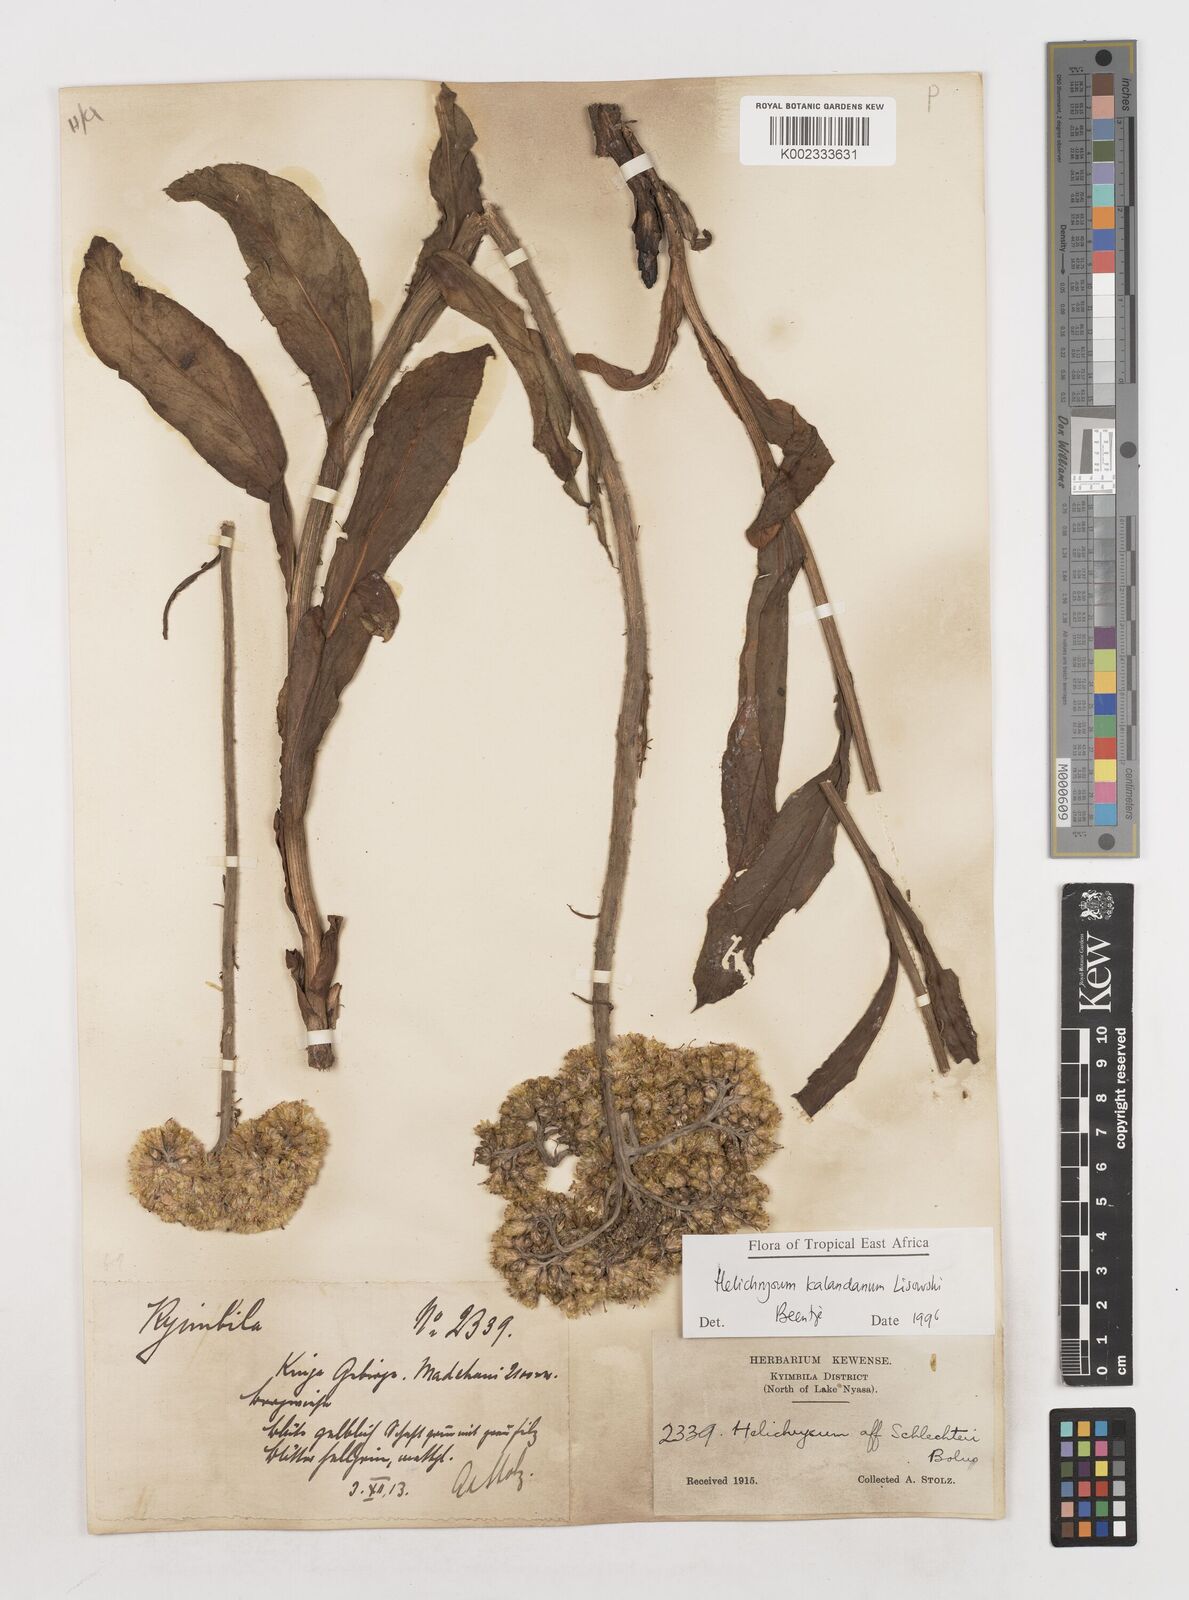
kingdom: Plantae
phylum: Tracheophyta
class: Magnoliopsida
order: Asterales
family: Asteraceae
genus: Helichrysum
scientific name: Helichrysum kalandanum
